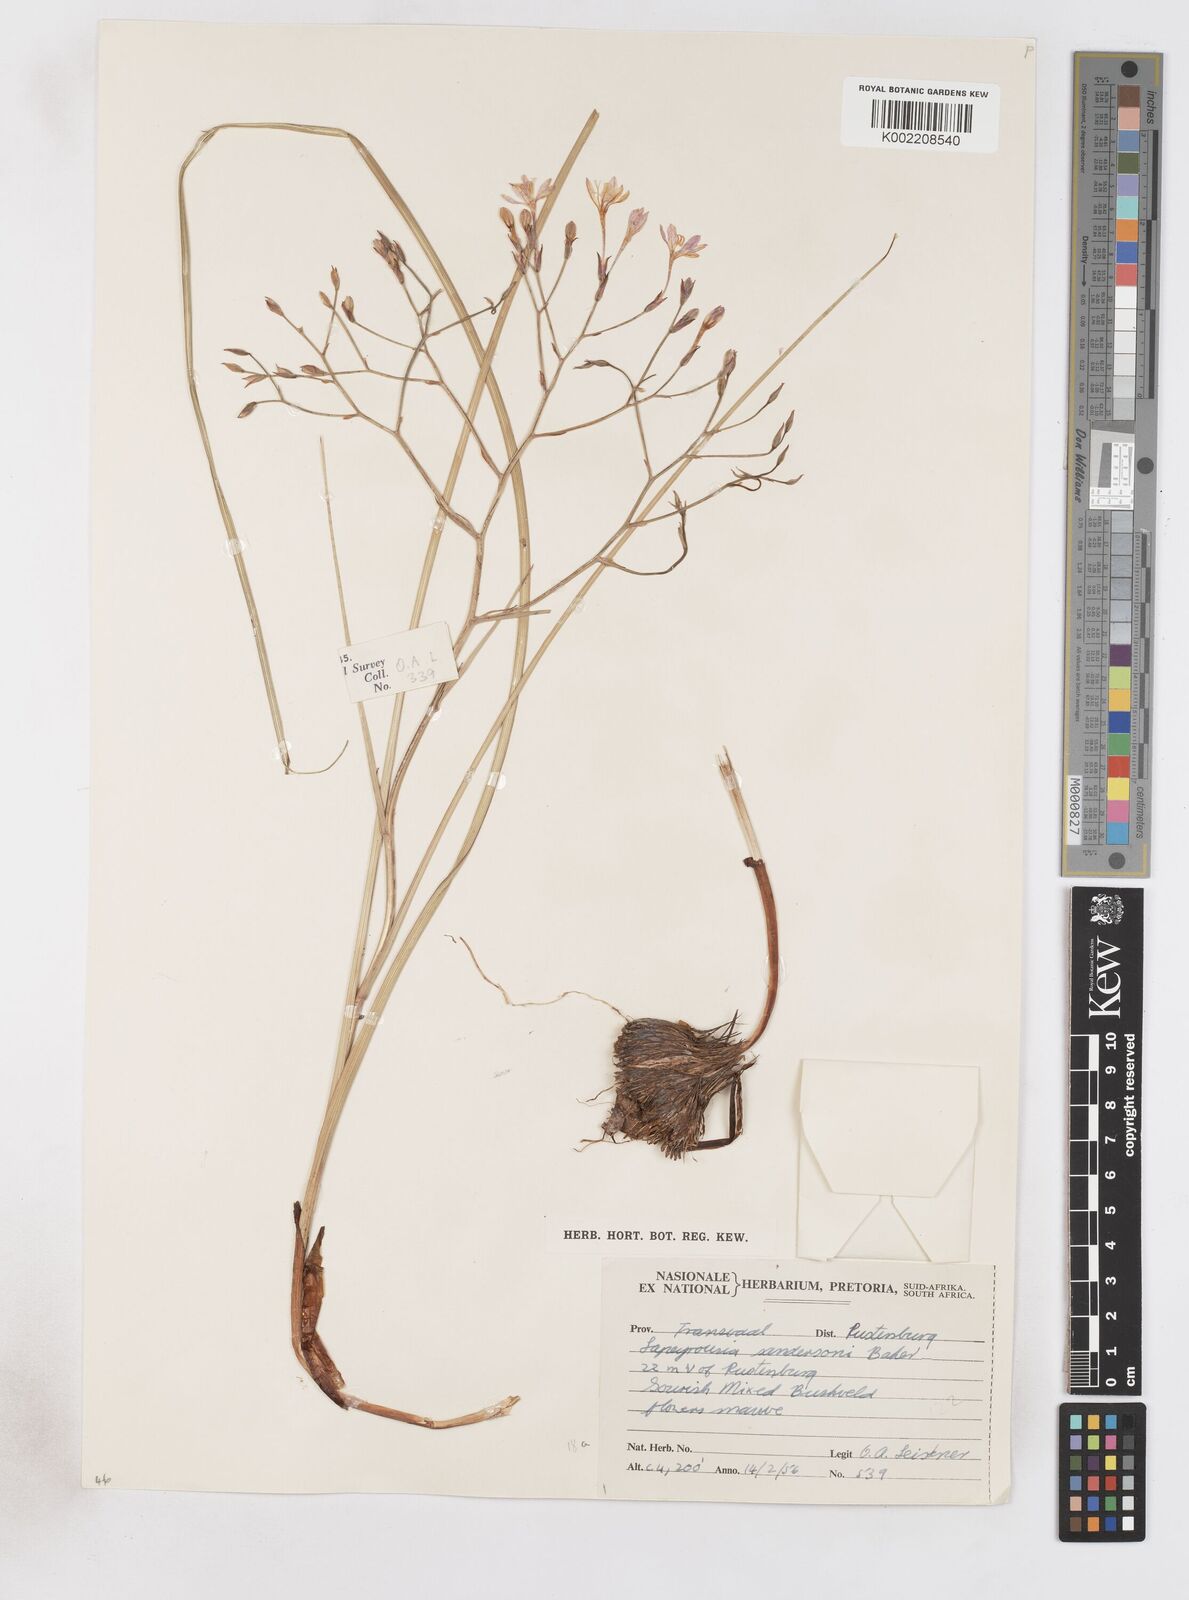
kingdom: Plantae
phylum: Tracheophyta
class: Liliopsida
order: Asparagales
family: Iridaceae
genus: Afrosolen
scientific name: Afrosolen sandersonii
